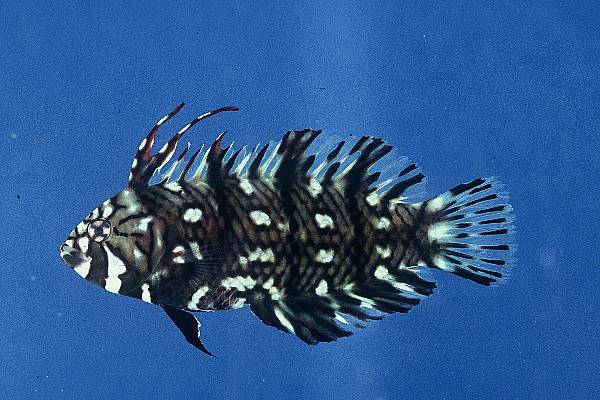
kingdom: Animalia
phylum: Chordata
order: Perciformes
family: Labridae
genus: Novaculichthys
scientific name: Novaculichthys taeniourus
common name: Rockmover wrasse
